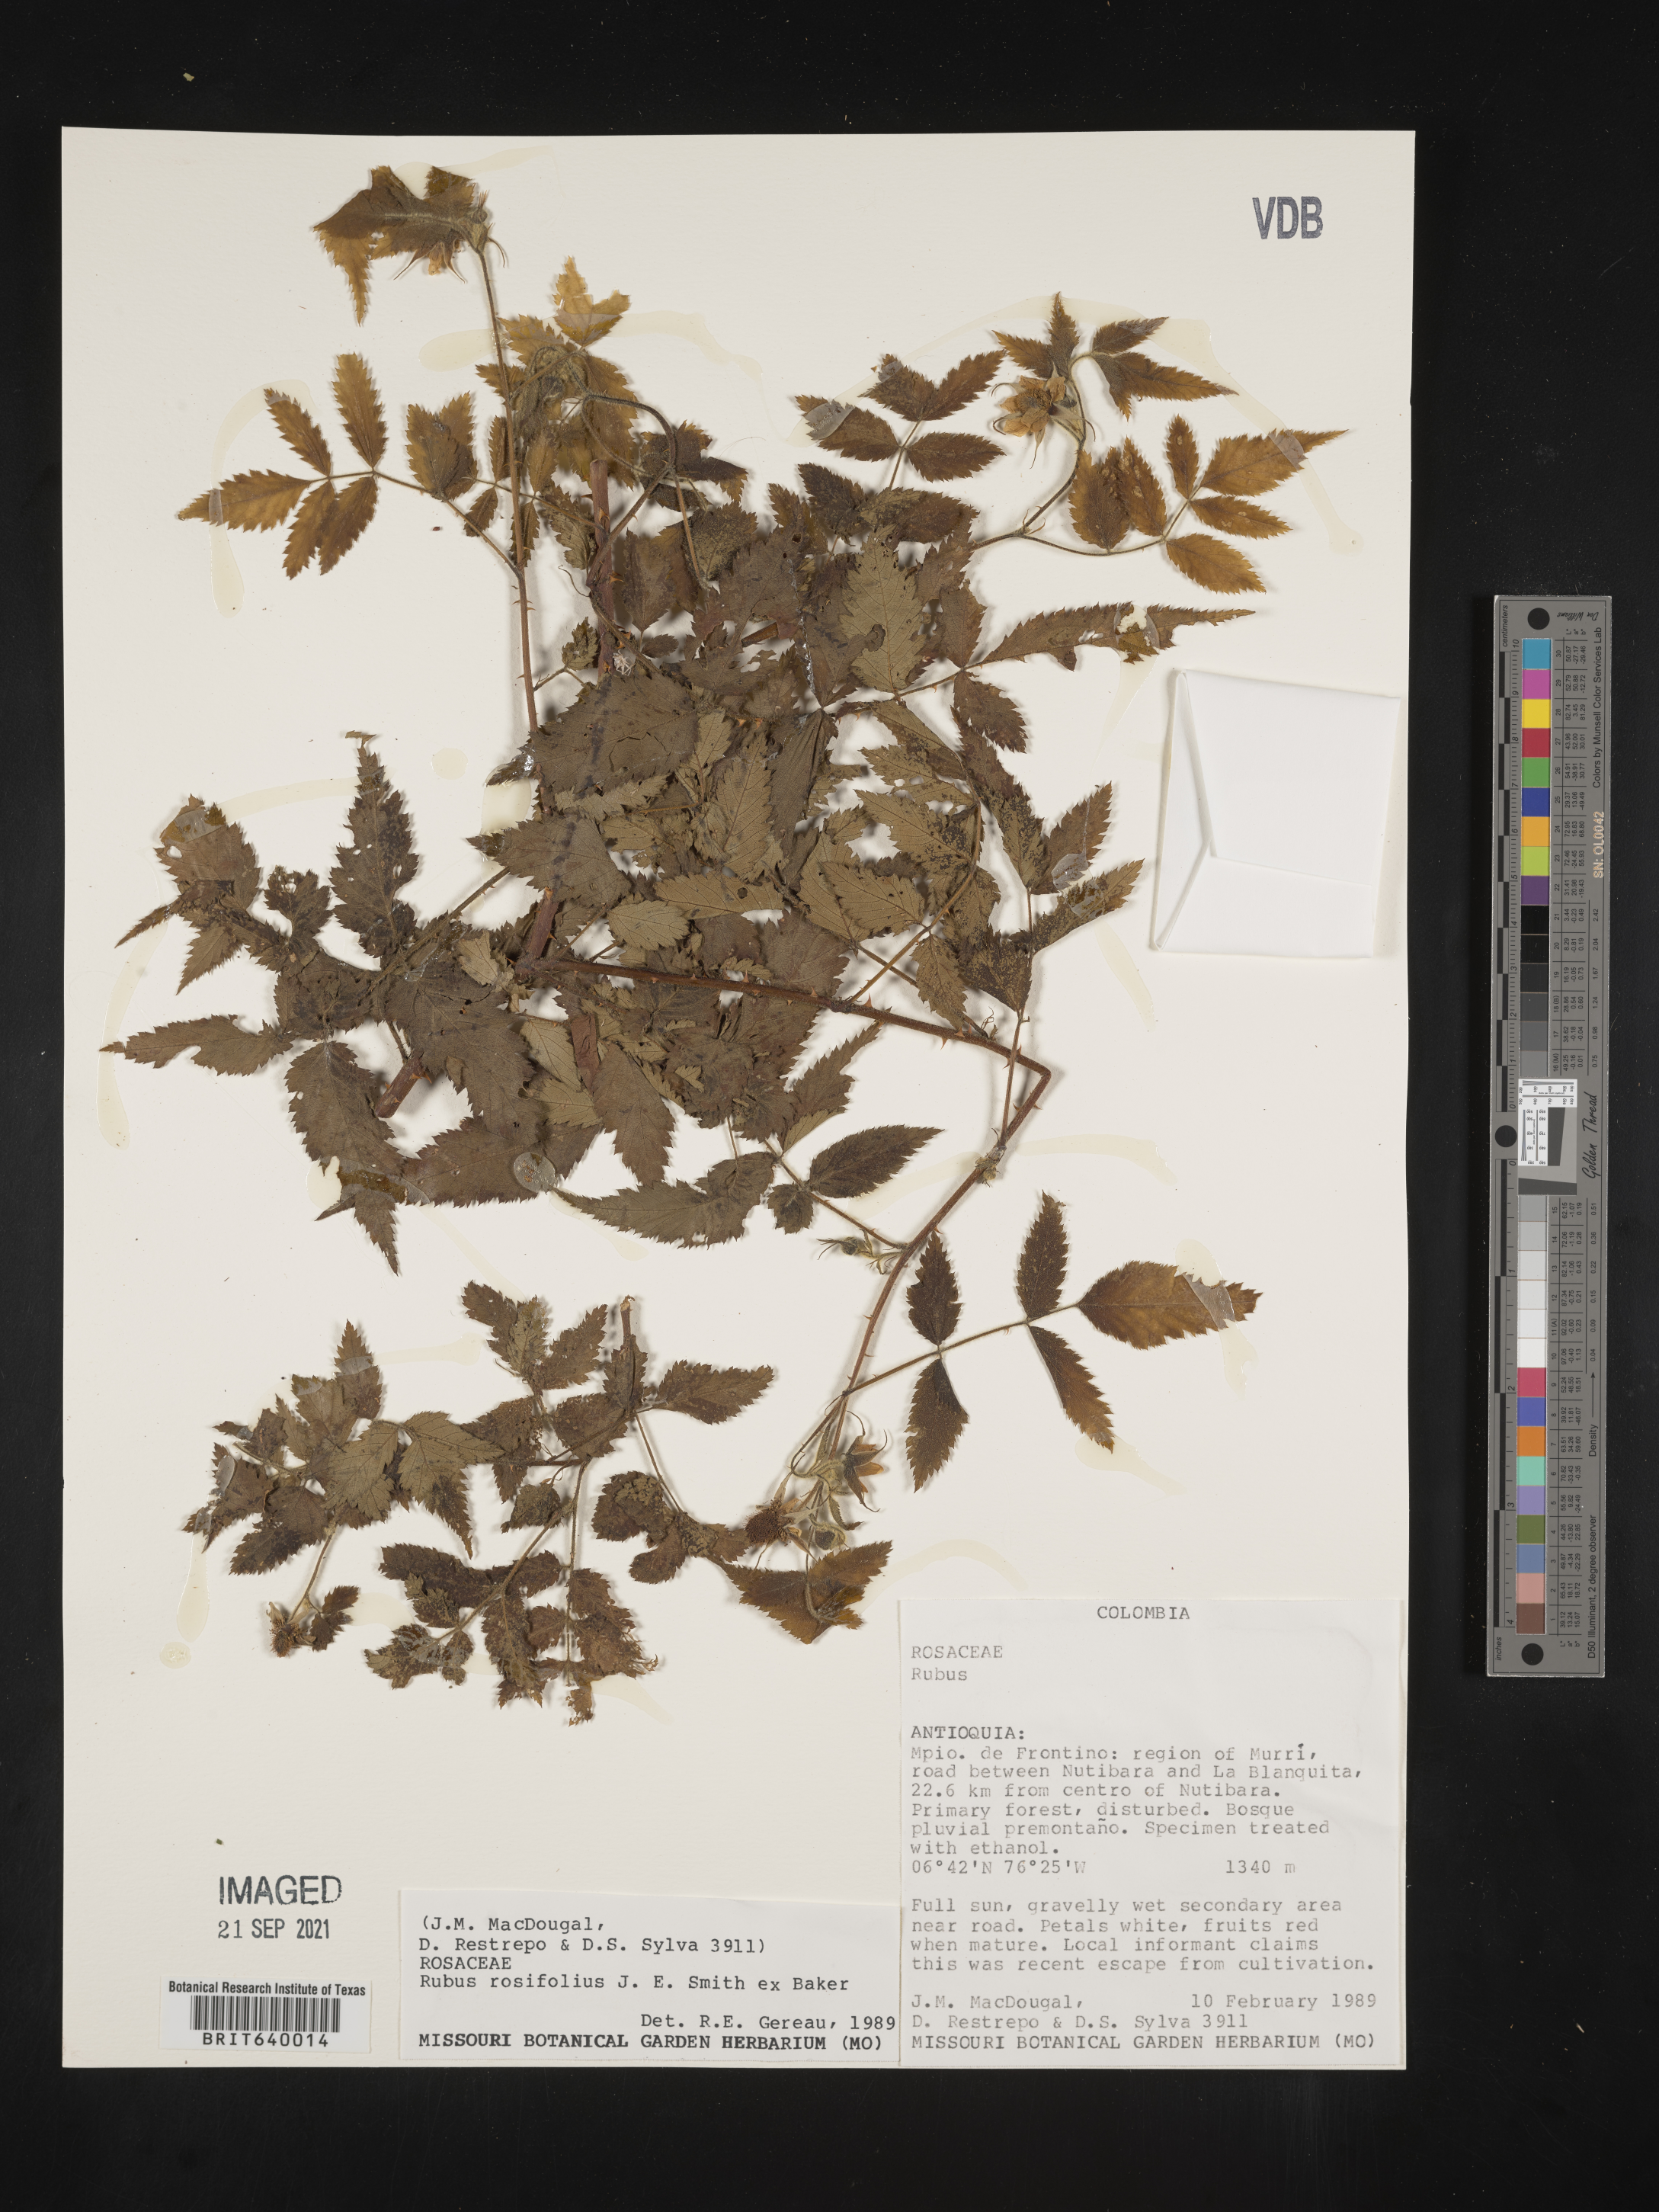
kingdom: Plantae
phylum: Tracheophyta
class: Magnoliopsida
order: Rosales
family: Rosaceae
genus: Rubus
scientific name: Rubus
